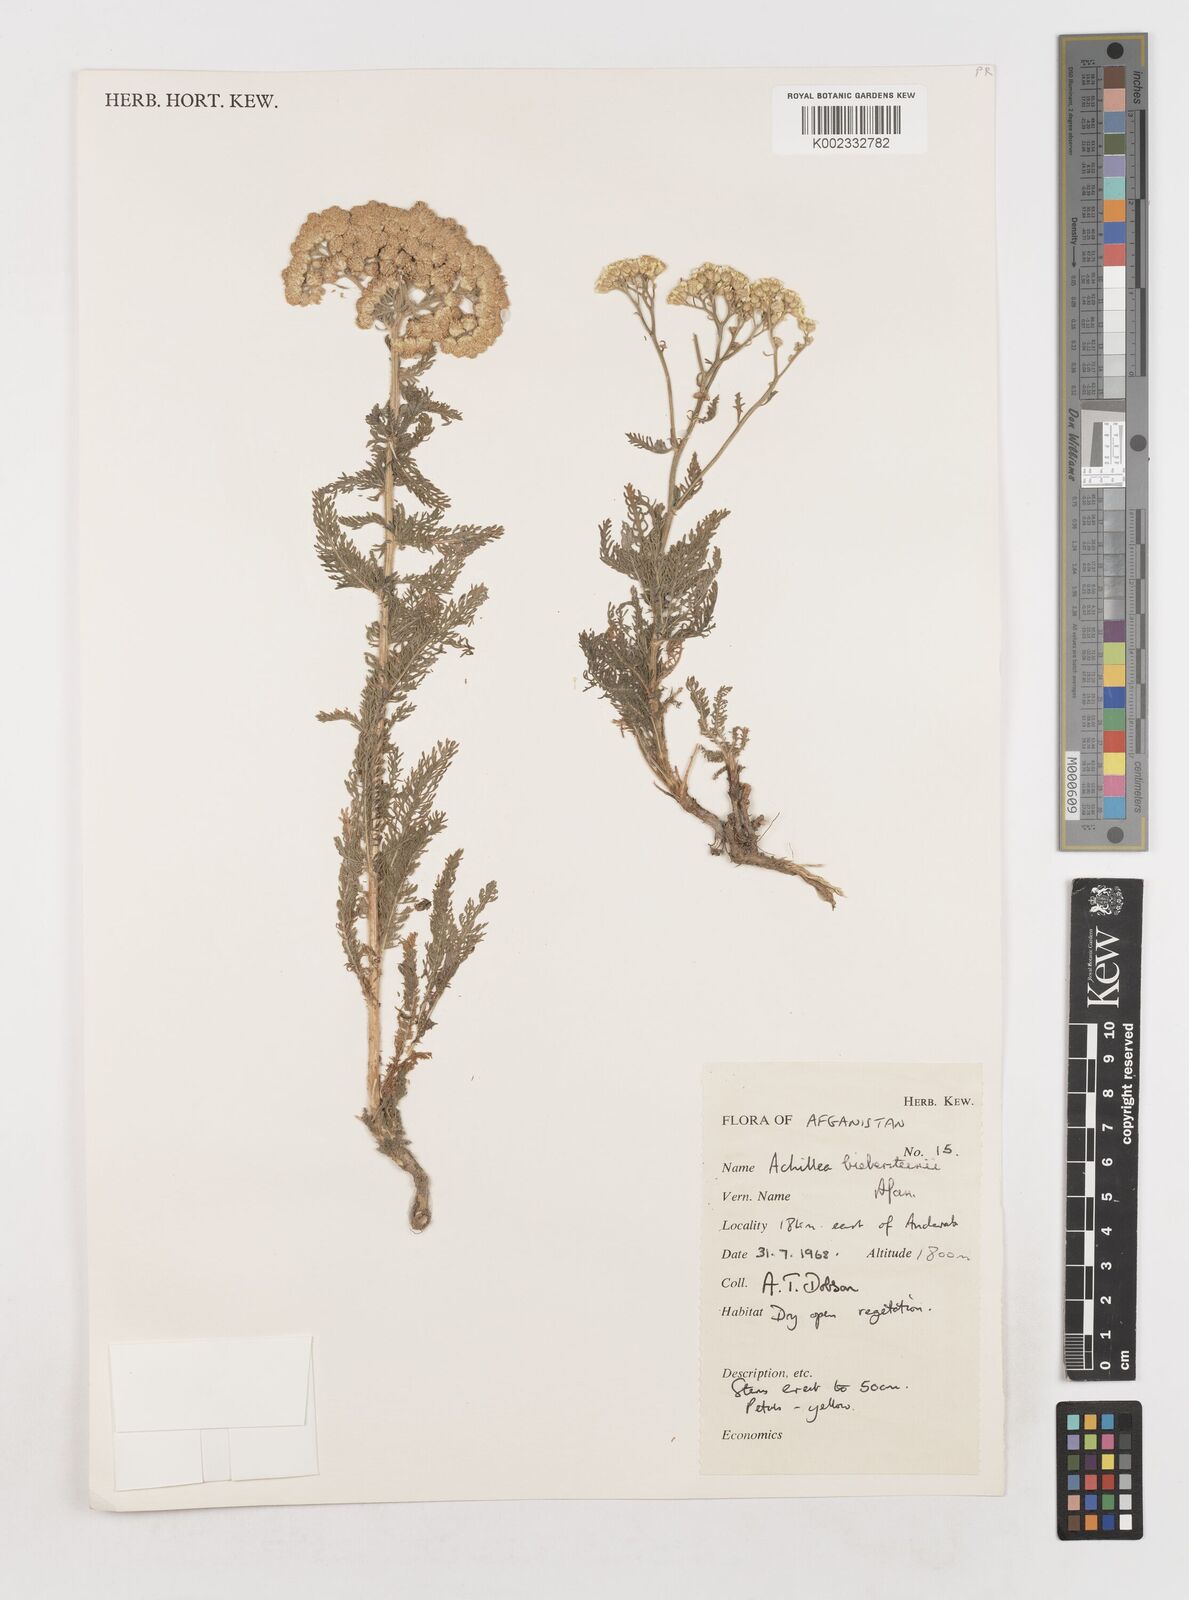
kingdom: Plantae
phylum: Tracheophyta
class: Magnoliopsida
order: Asterales
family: Asteraceae
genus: Achillea
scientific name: Achillea arabica
